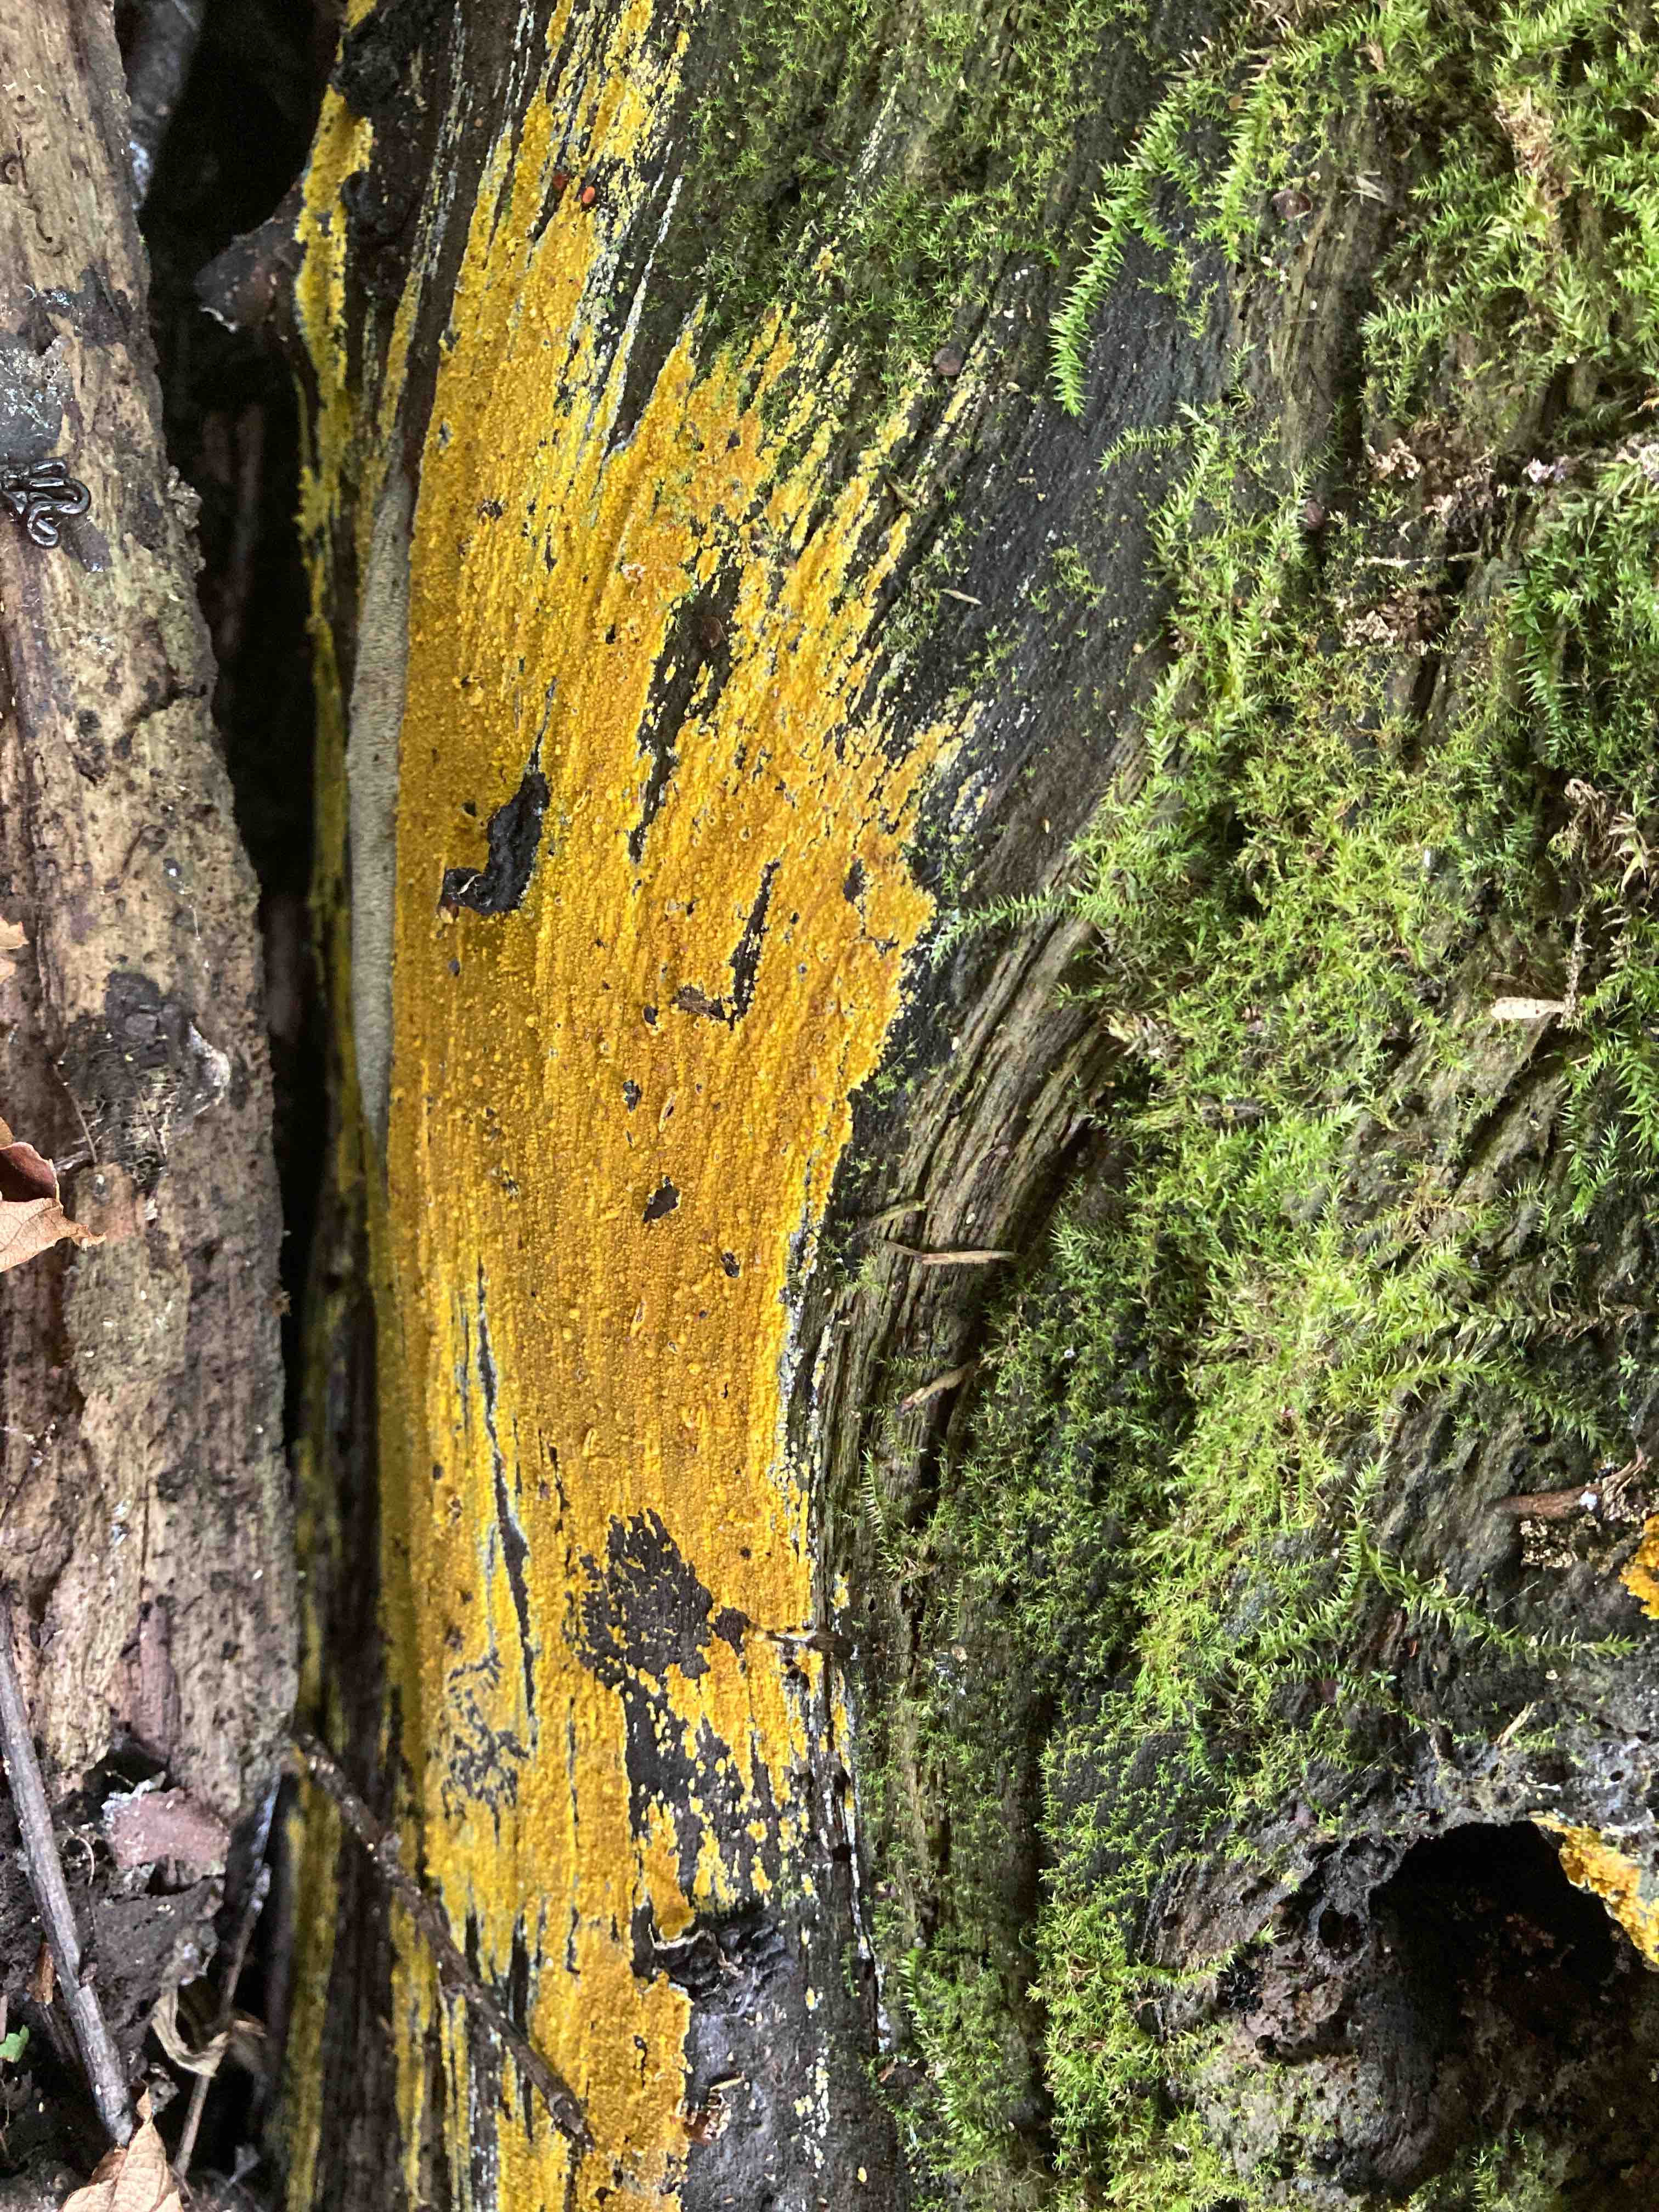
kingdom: Fungi
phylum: Basidiomycota
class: Agaricomycetes
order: Polyporales
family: Meruliaceae
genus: Phlebiodontia
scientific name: Phlebiodontia subochracea
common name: svovl-åresvamp
